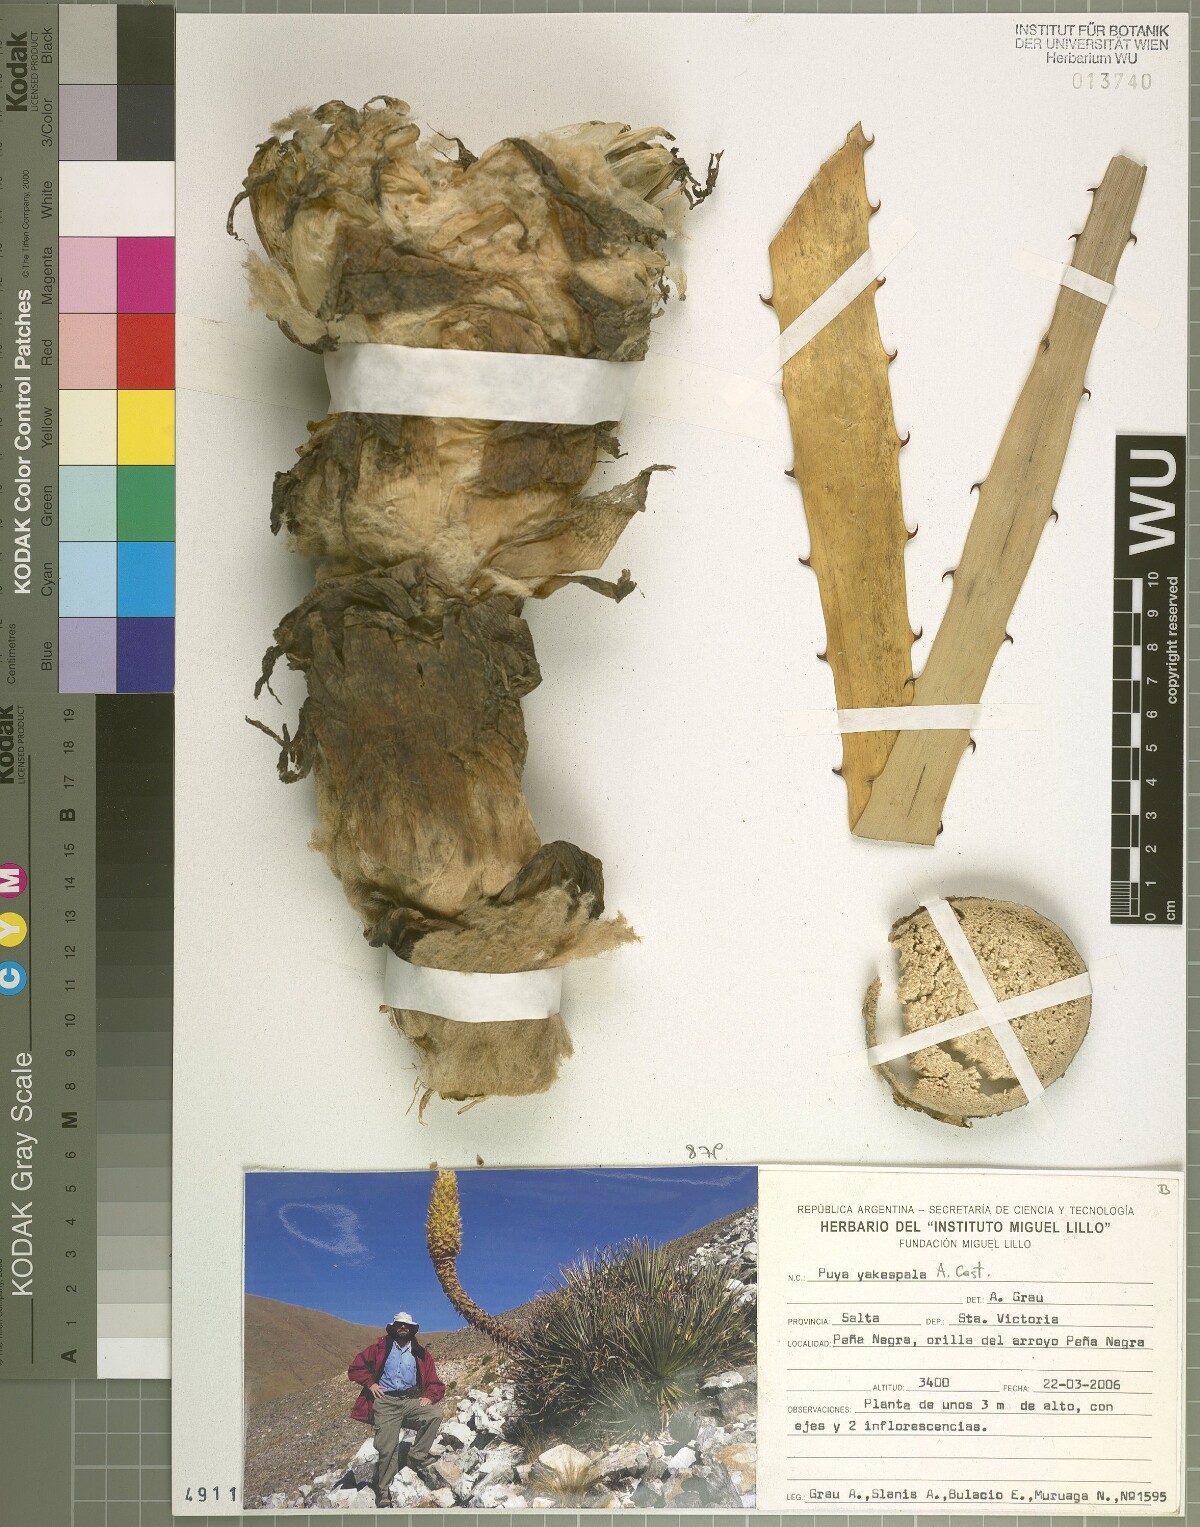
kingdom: Plantae
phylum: Tracheophyta
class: Liliopsida
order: Poales
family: Bromeliaceae
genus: Puya
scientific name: Puya yakespala
